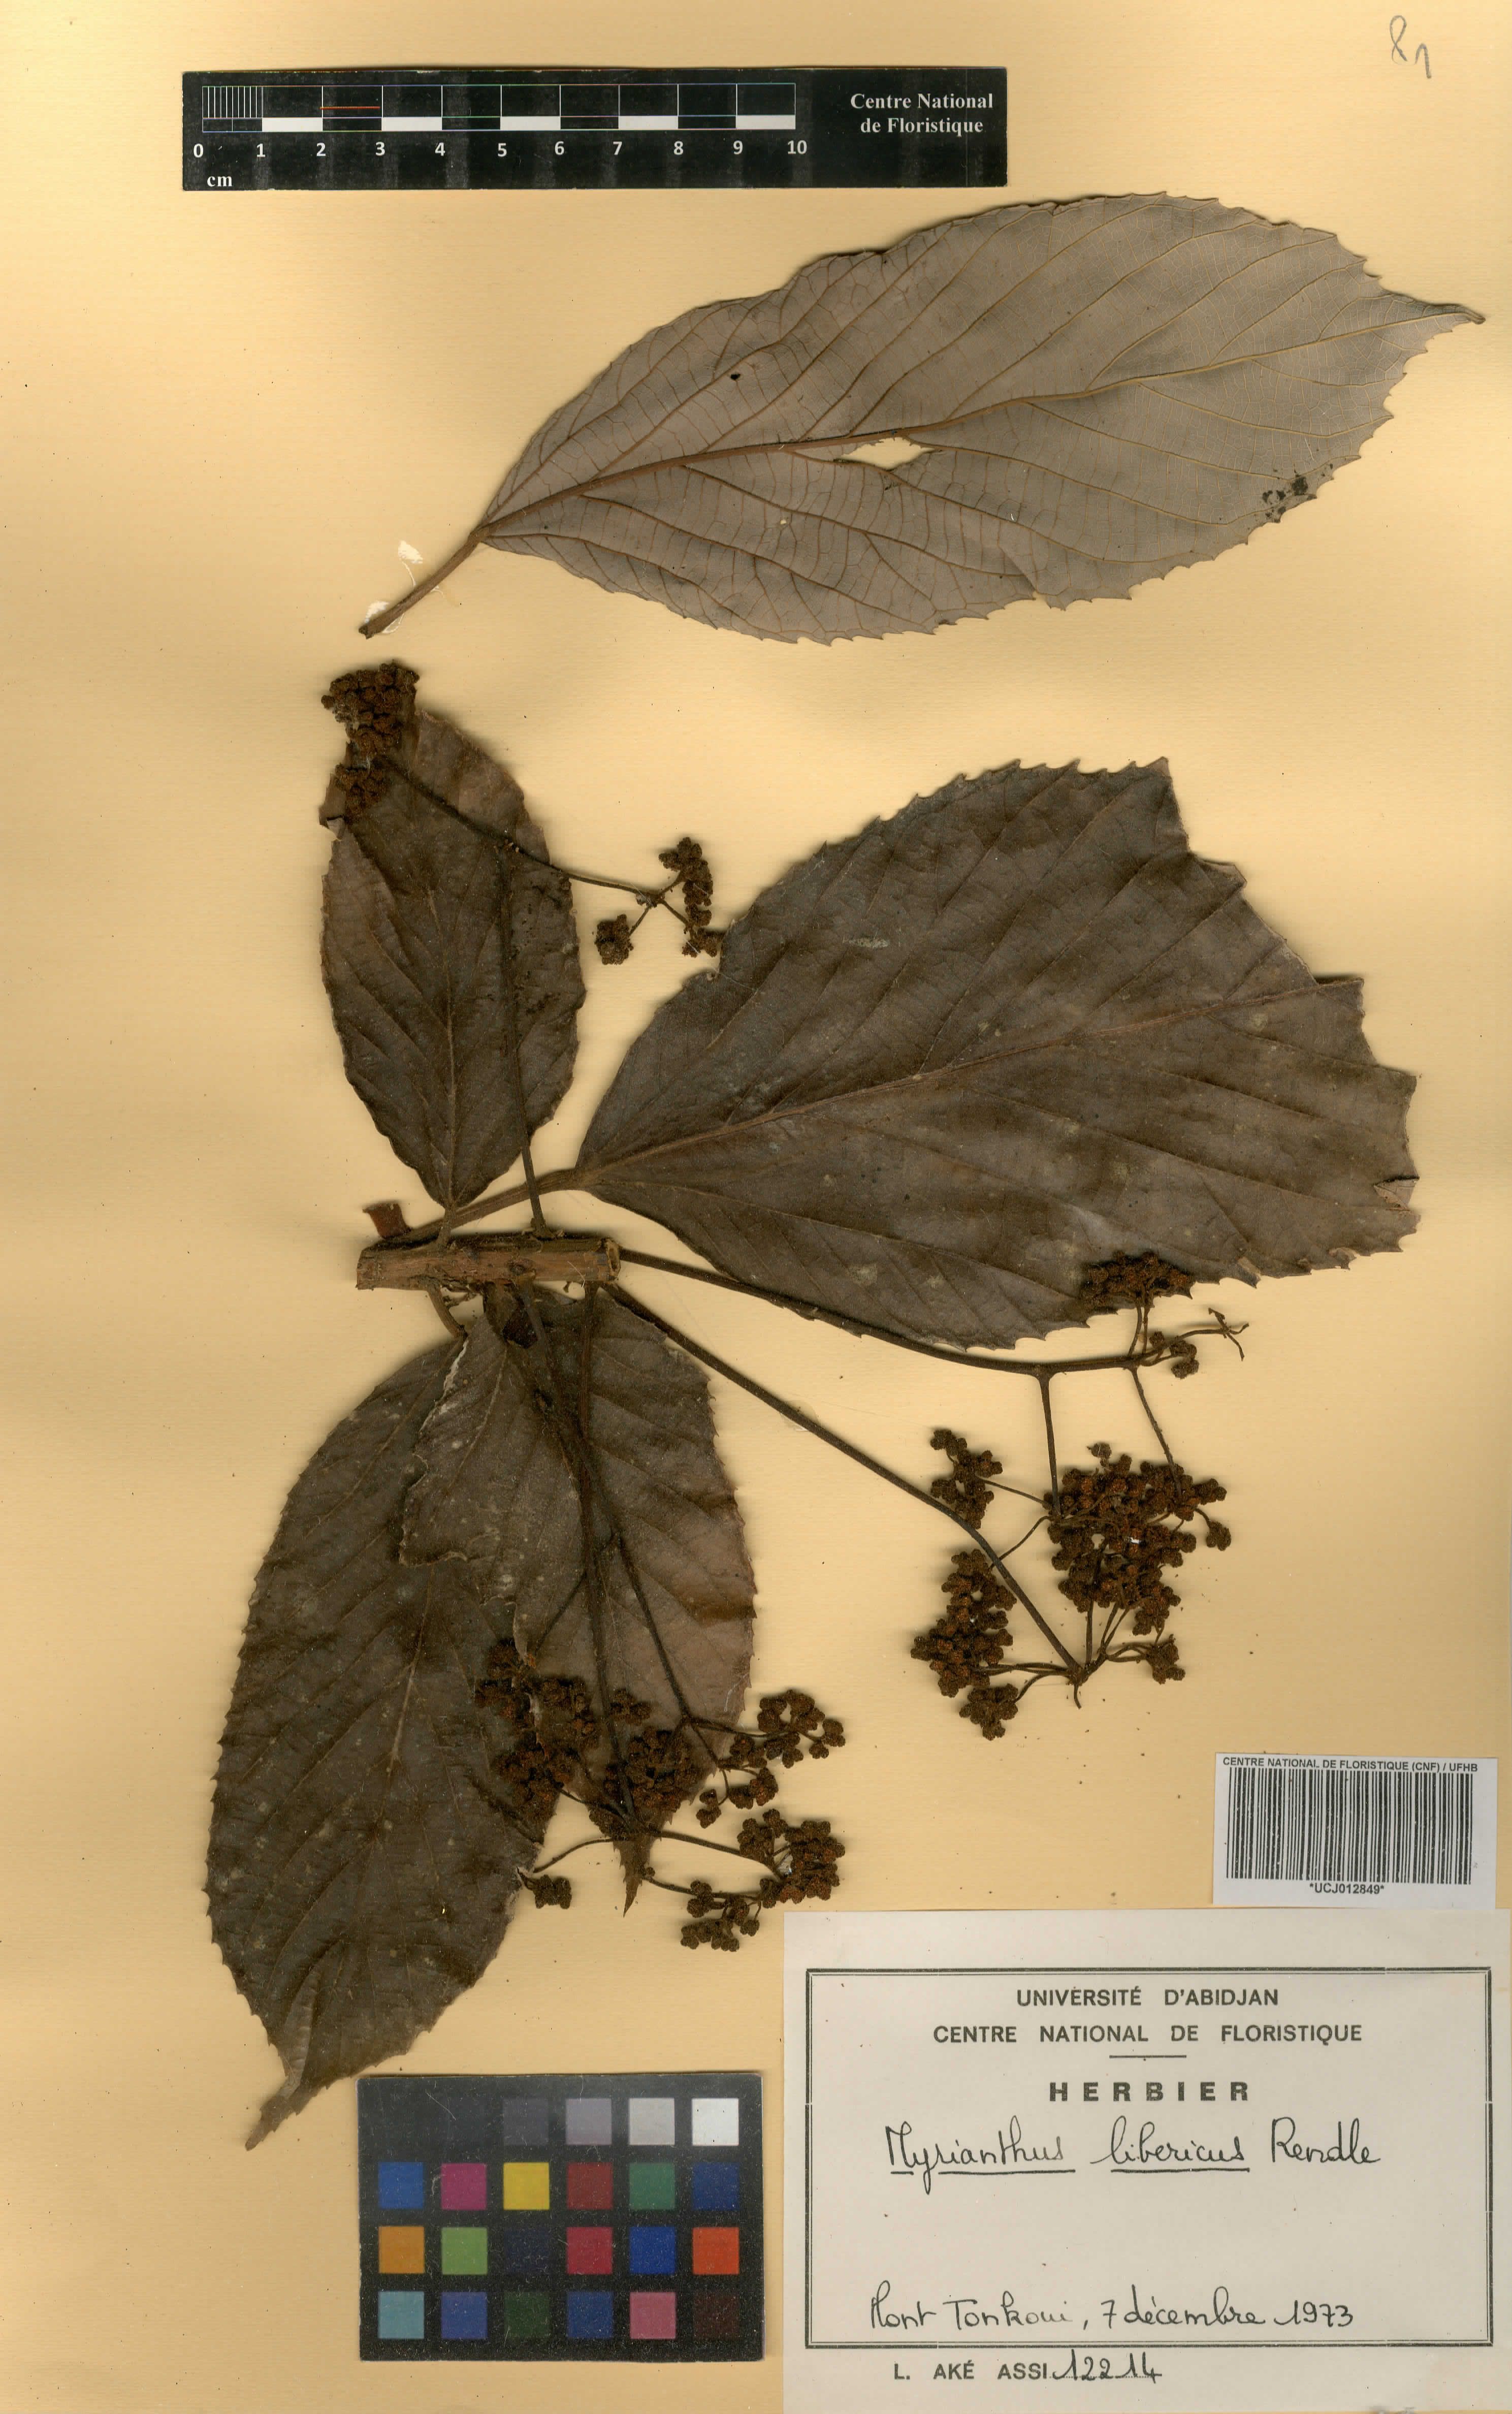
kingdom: Plantae
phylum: Tracheophyta
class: Magnoliopsida
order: Rosales
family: Urticaceae
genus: Myrianthus
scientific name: Myrianthus libericus
